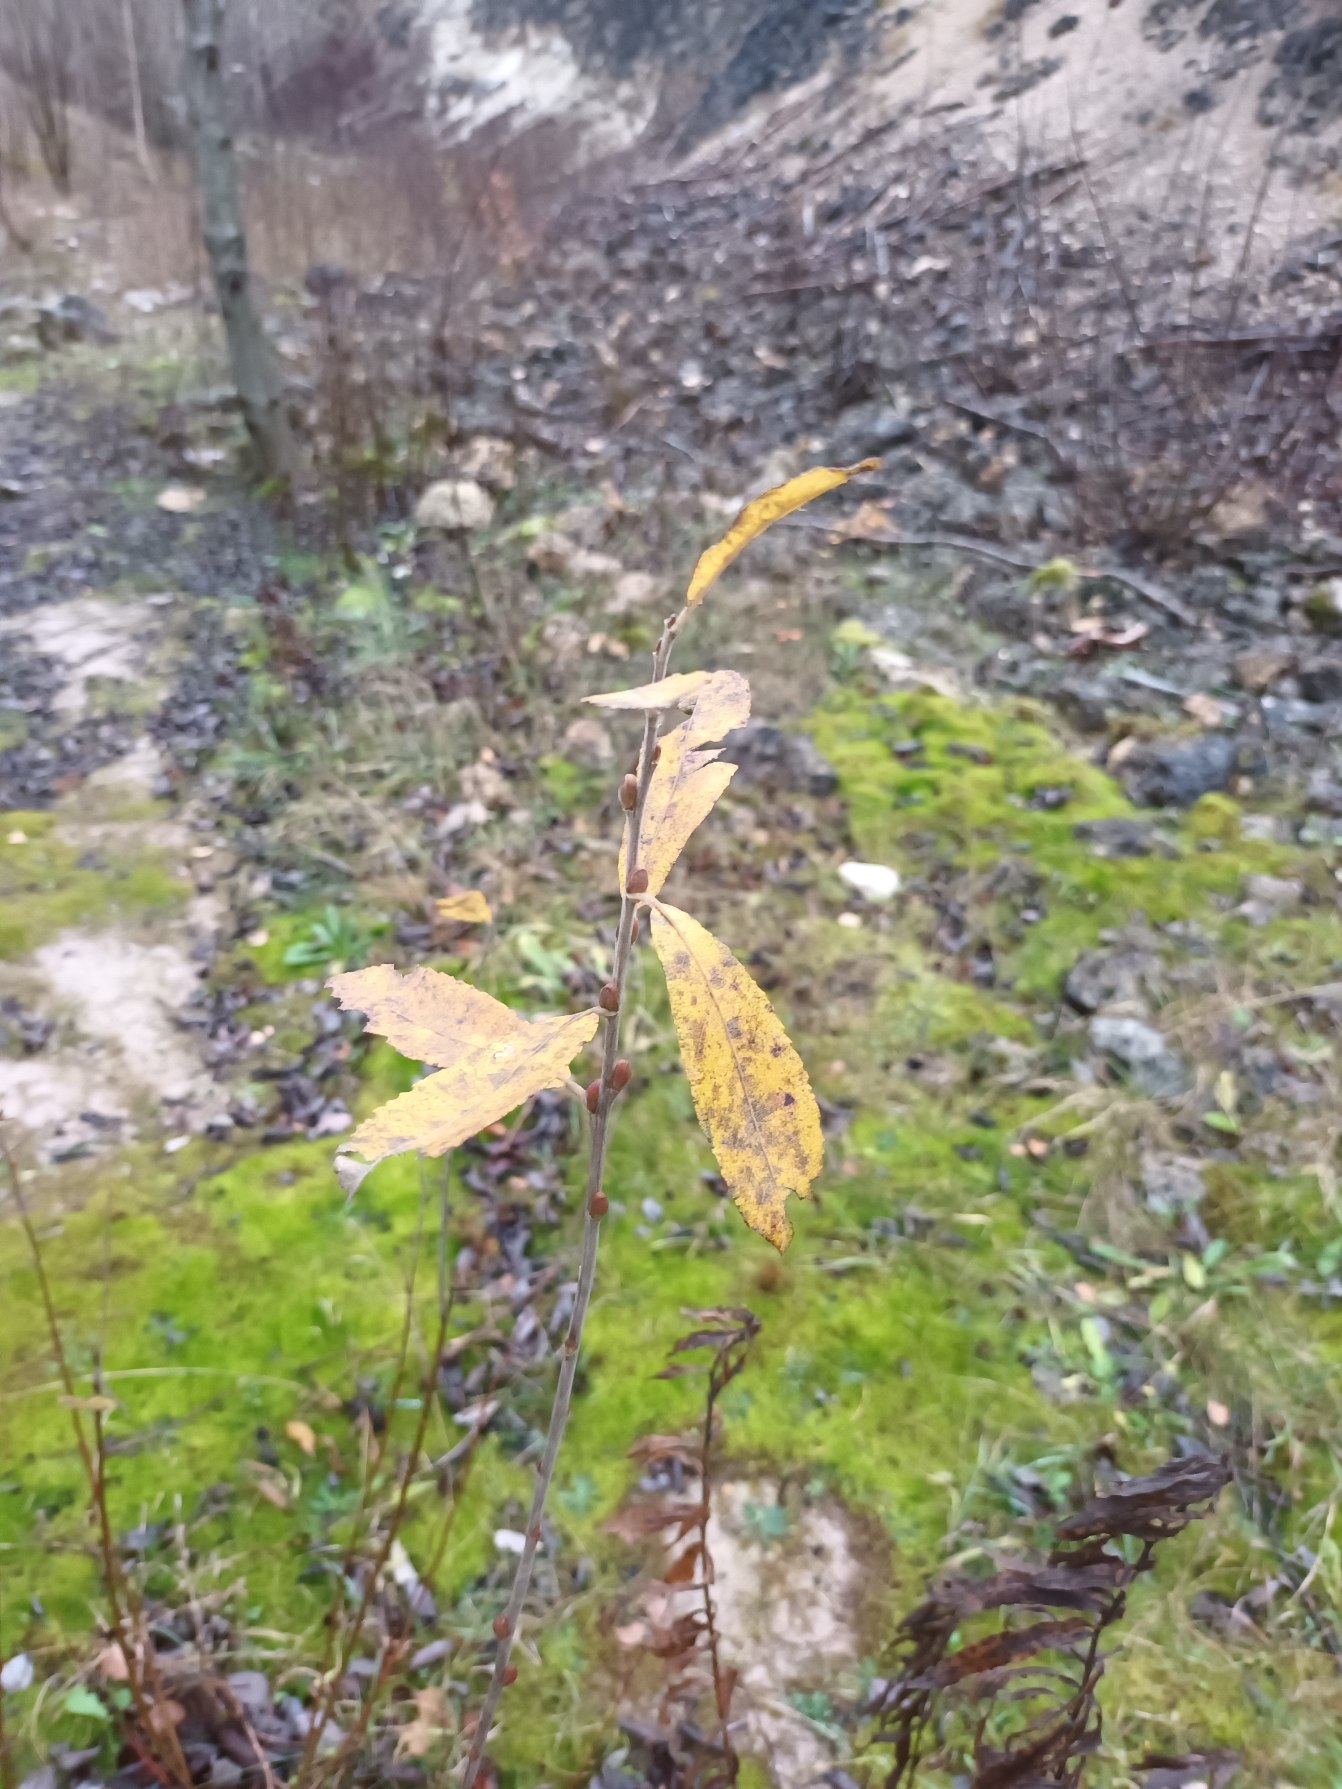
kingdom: Plantae
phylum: Tracheophyta
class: Magnoliopsida
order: Malpighiales
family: Salicaceae
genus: Salix
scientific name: Salix cinerea
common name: Grå-pil
